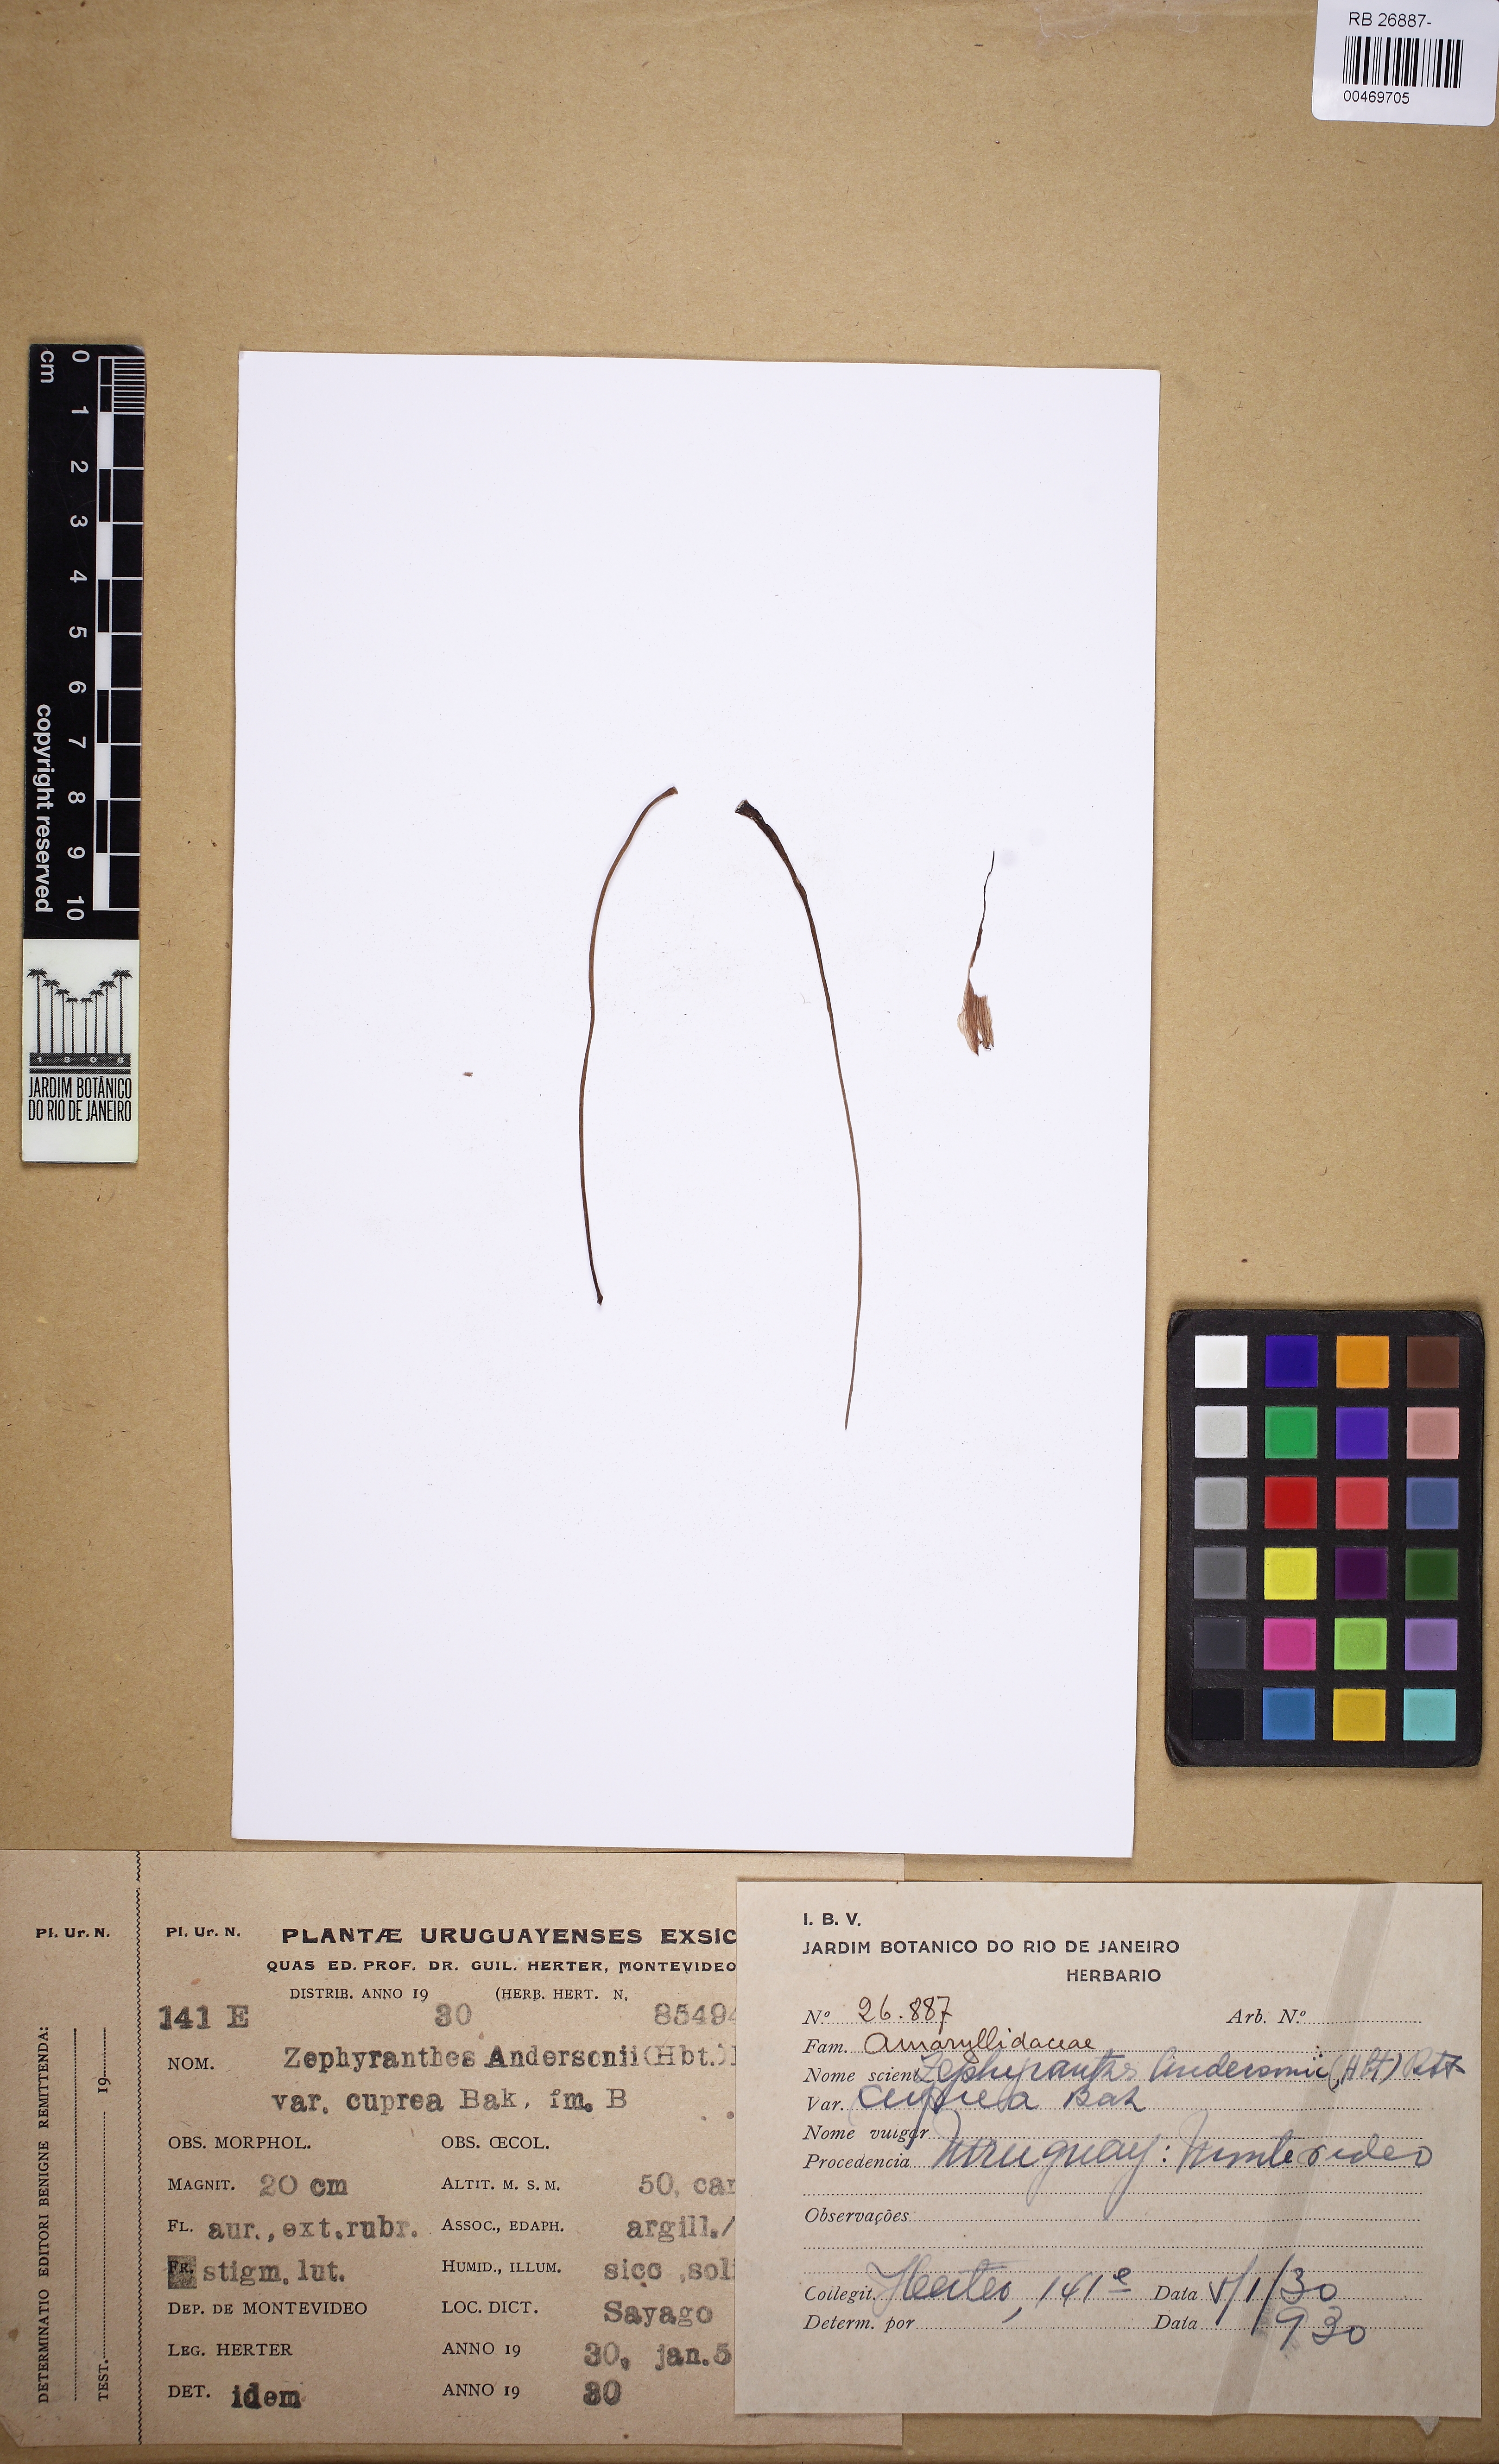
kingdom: Plantae
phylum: Tracheophyta
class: Liliopsida
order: Asparagales
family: Amaryllidaceae
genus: Zephyranthes
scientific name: Zephyranthes andersonii
